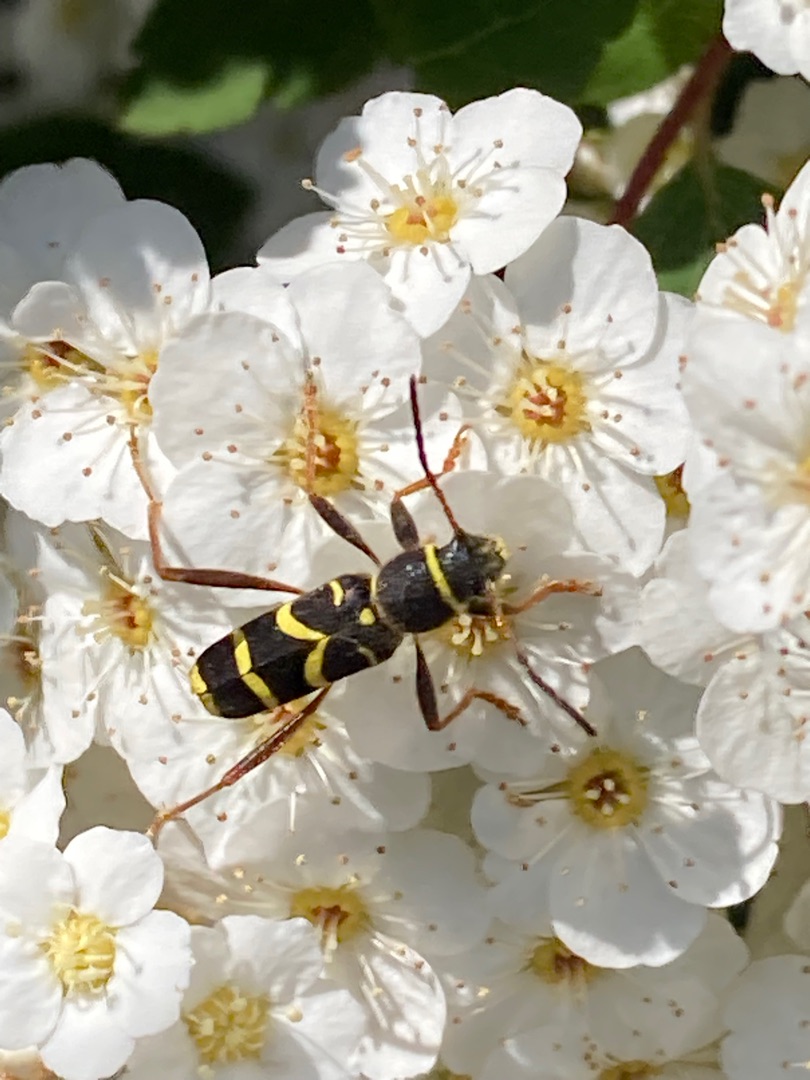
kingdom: Animalia
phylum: Arthropoda
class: Insecta
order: Coleoptera
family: Cerambycidae
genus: Clytus
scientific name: Clytus arietis
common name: Lille hvepsebuk
